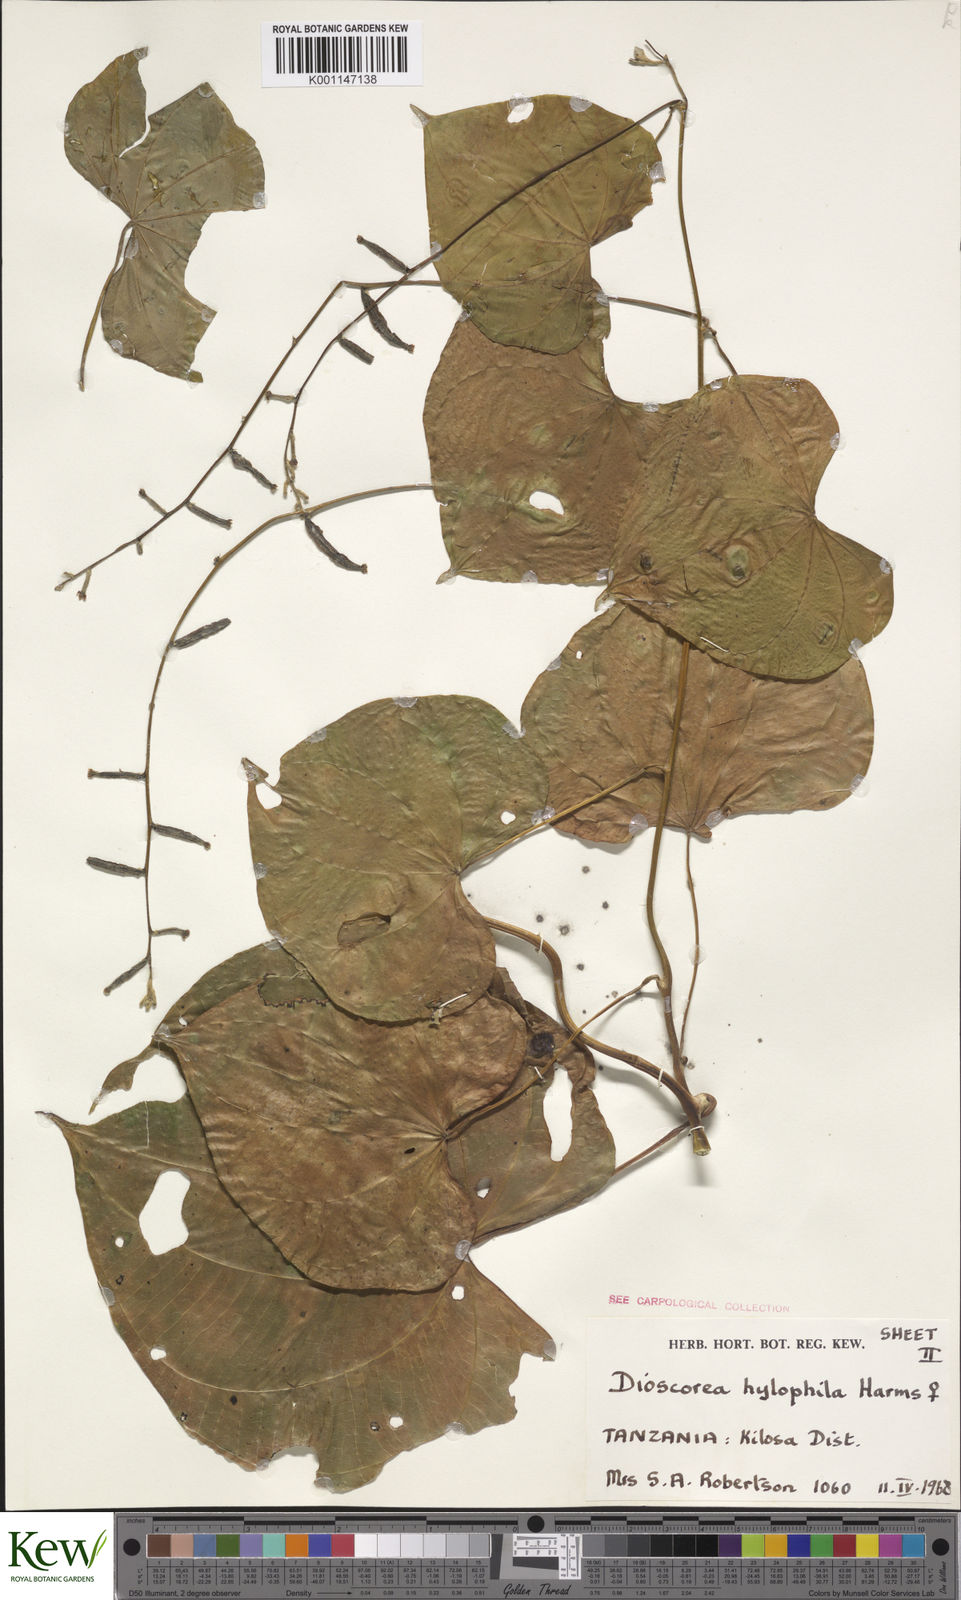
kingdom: Plantae
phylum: Tracheophyta
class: Liliopsida
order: Dioscoreales
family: Dioscoreaceae
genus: Dioscorea
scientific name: Dioscorea
